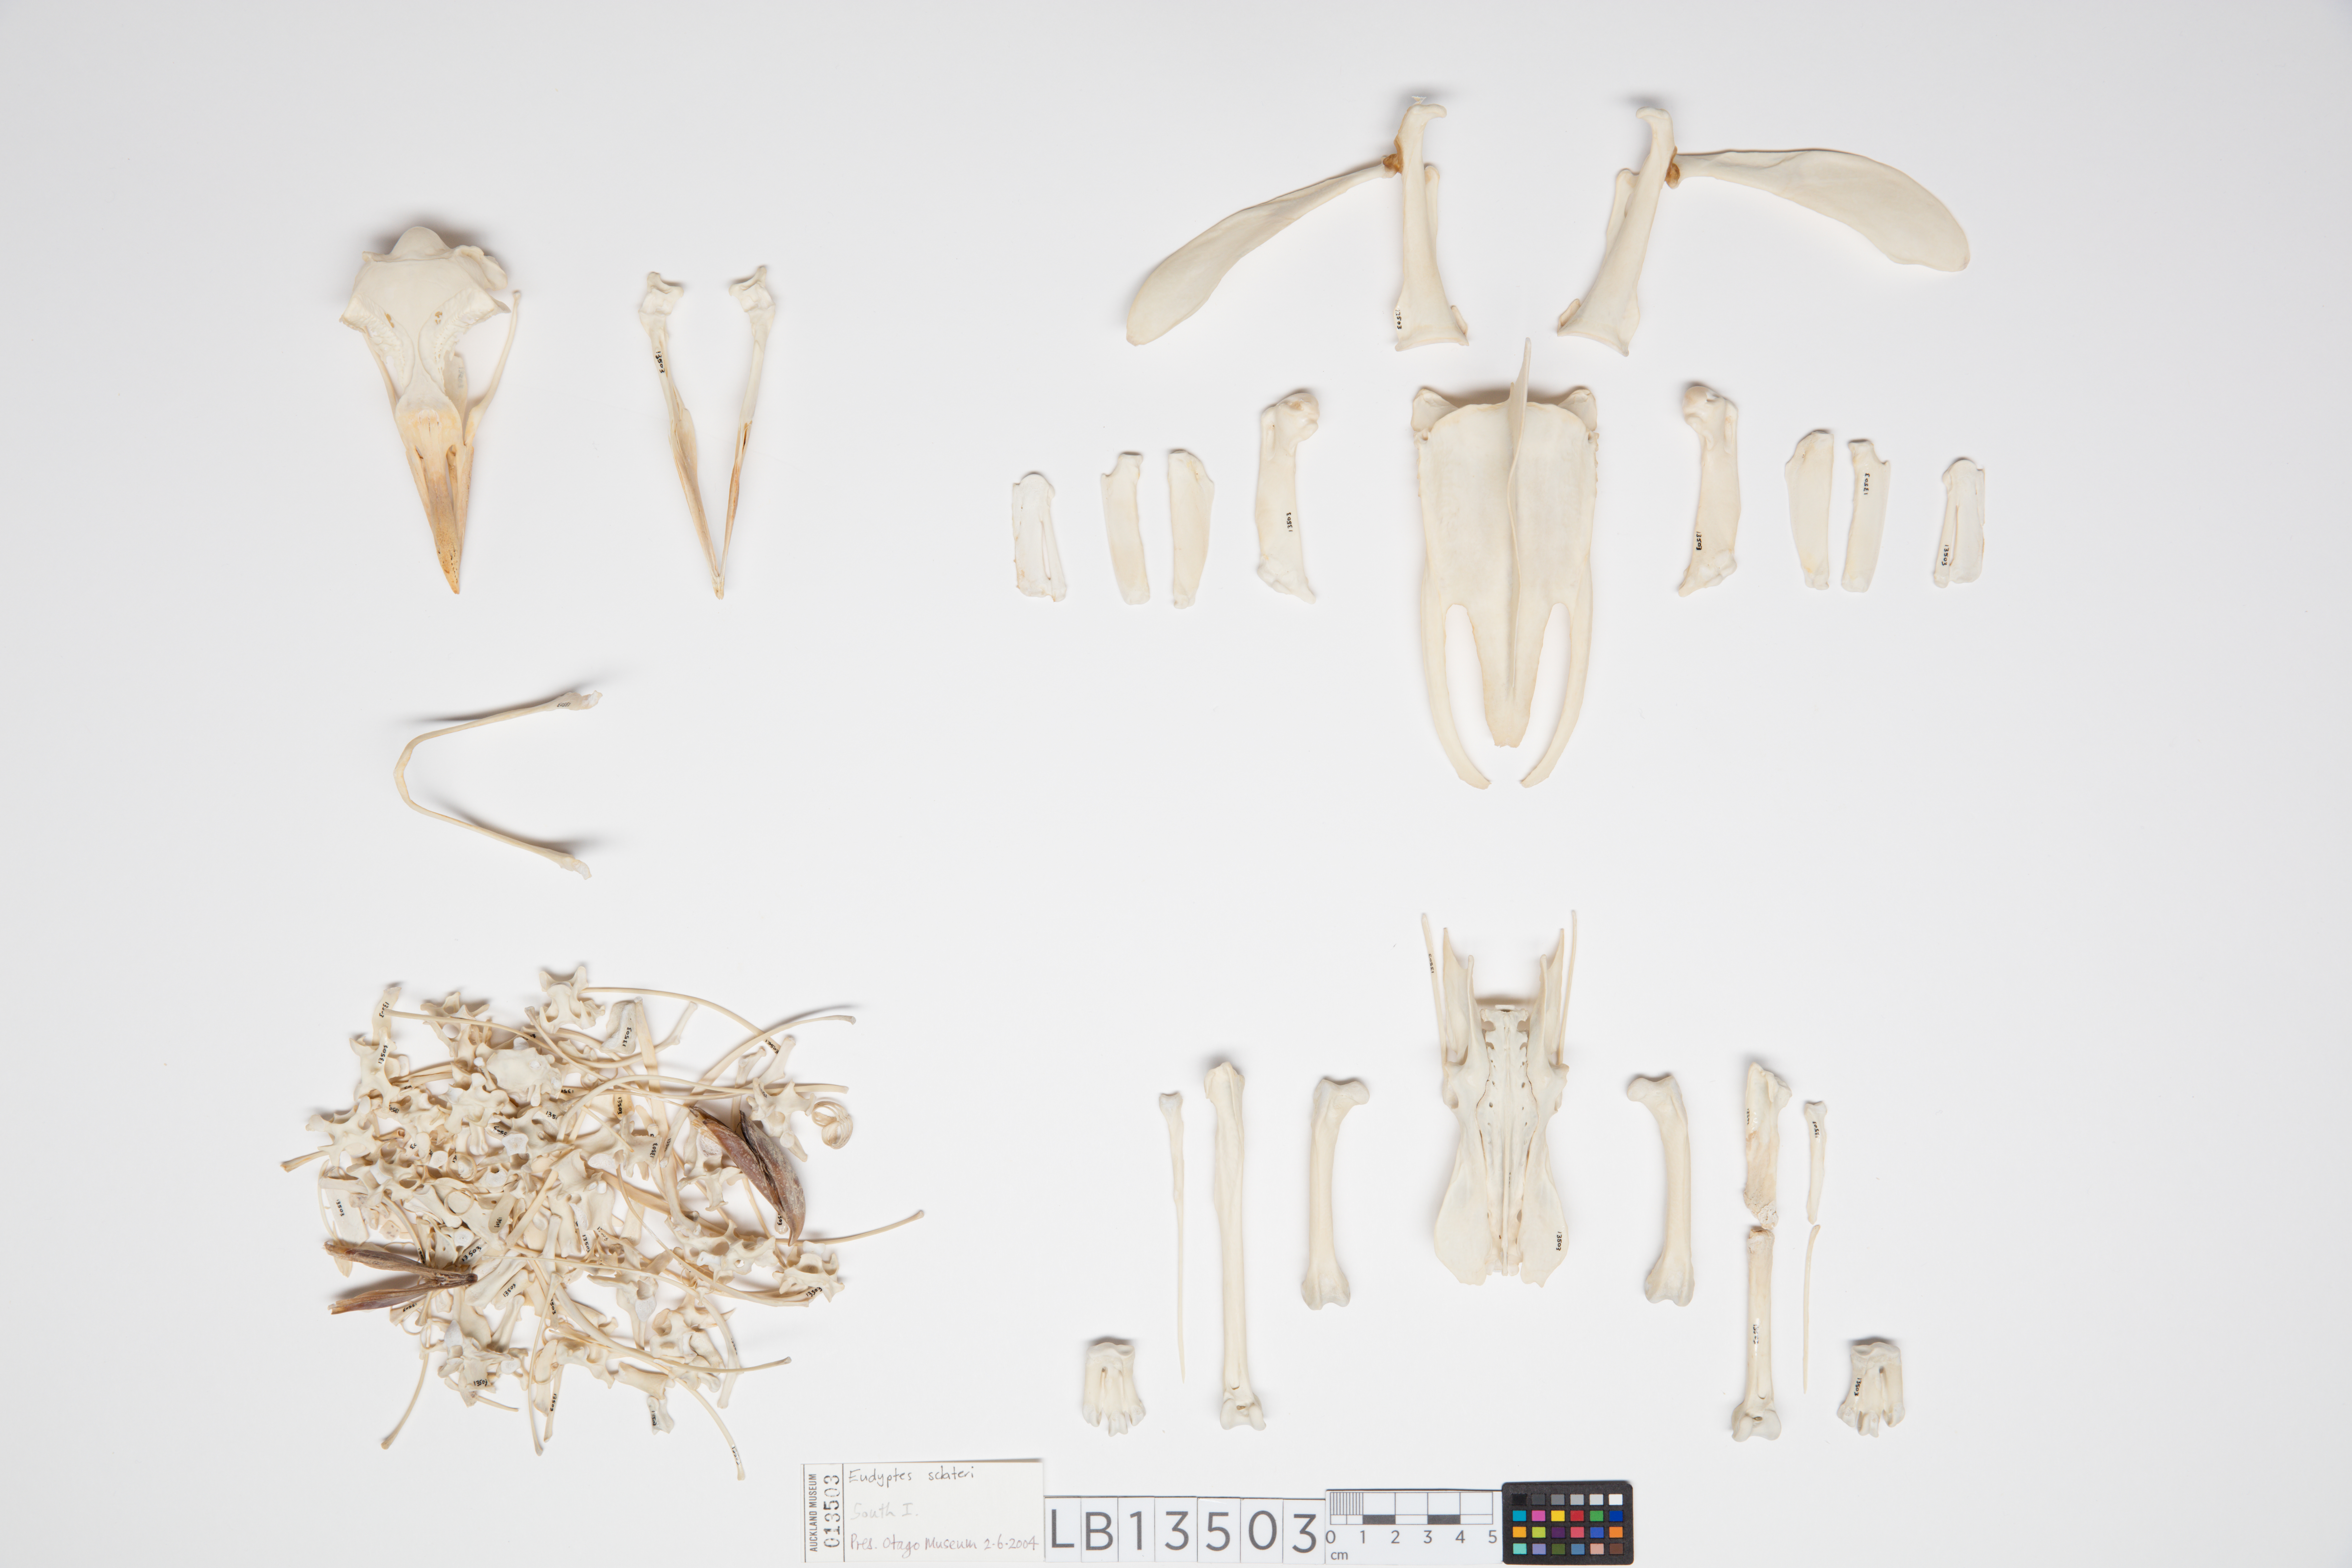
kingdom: Animalia
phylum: Chordata
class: Aves
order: Sphenisciformes
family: Spheniscidae
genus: Eudyptes
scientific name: Eudyptes sclateri
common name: Erect-crested penguin
